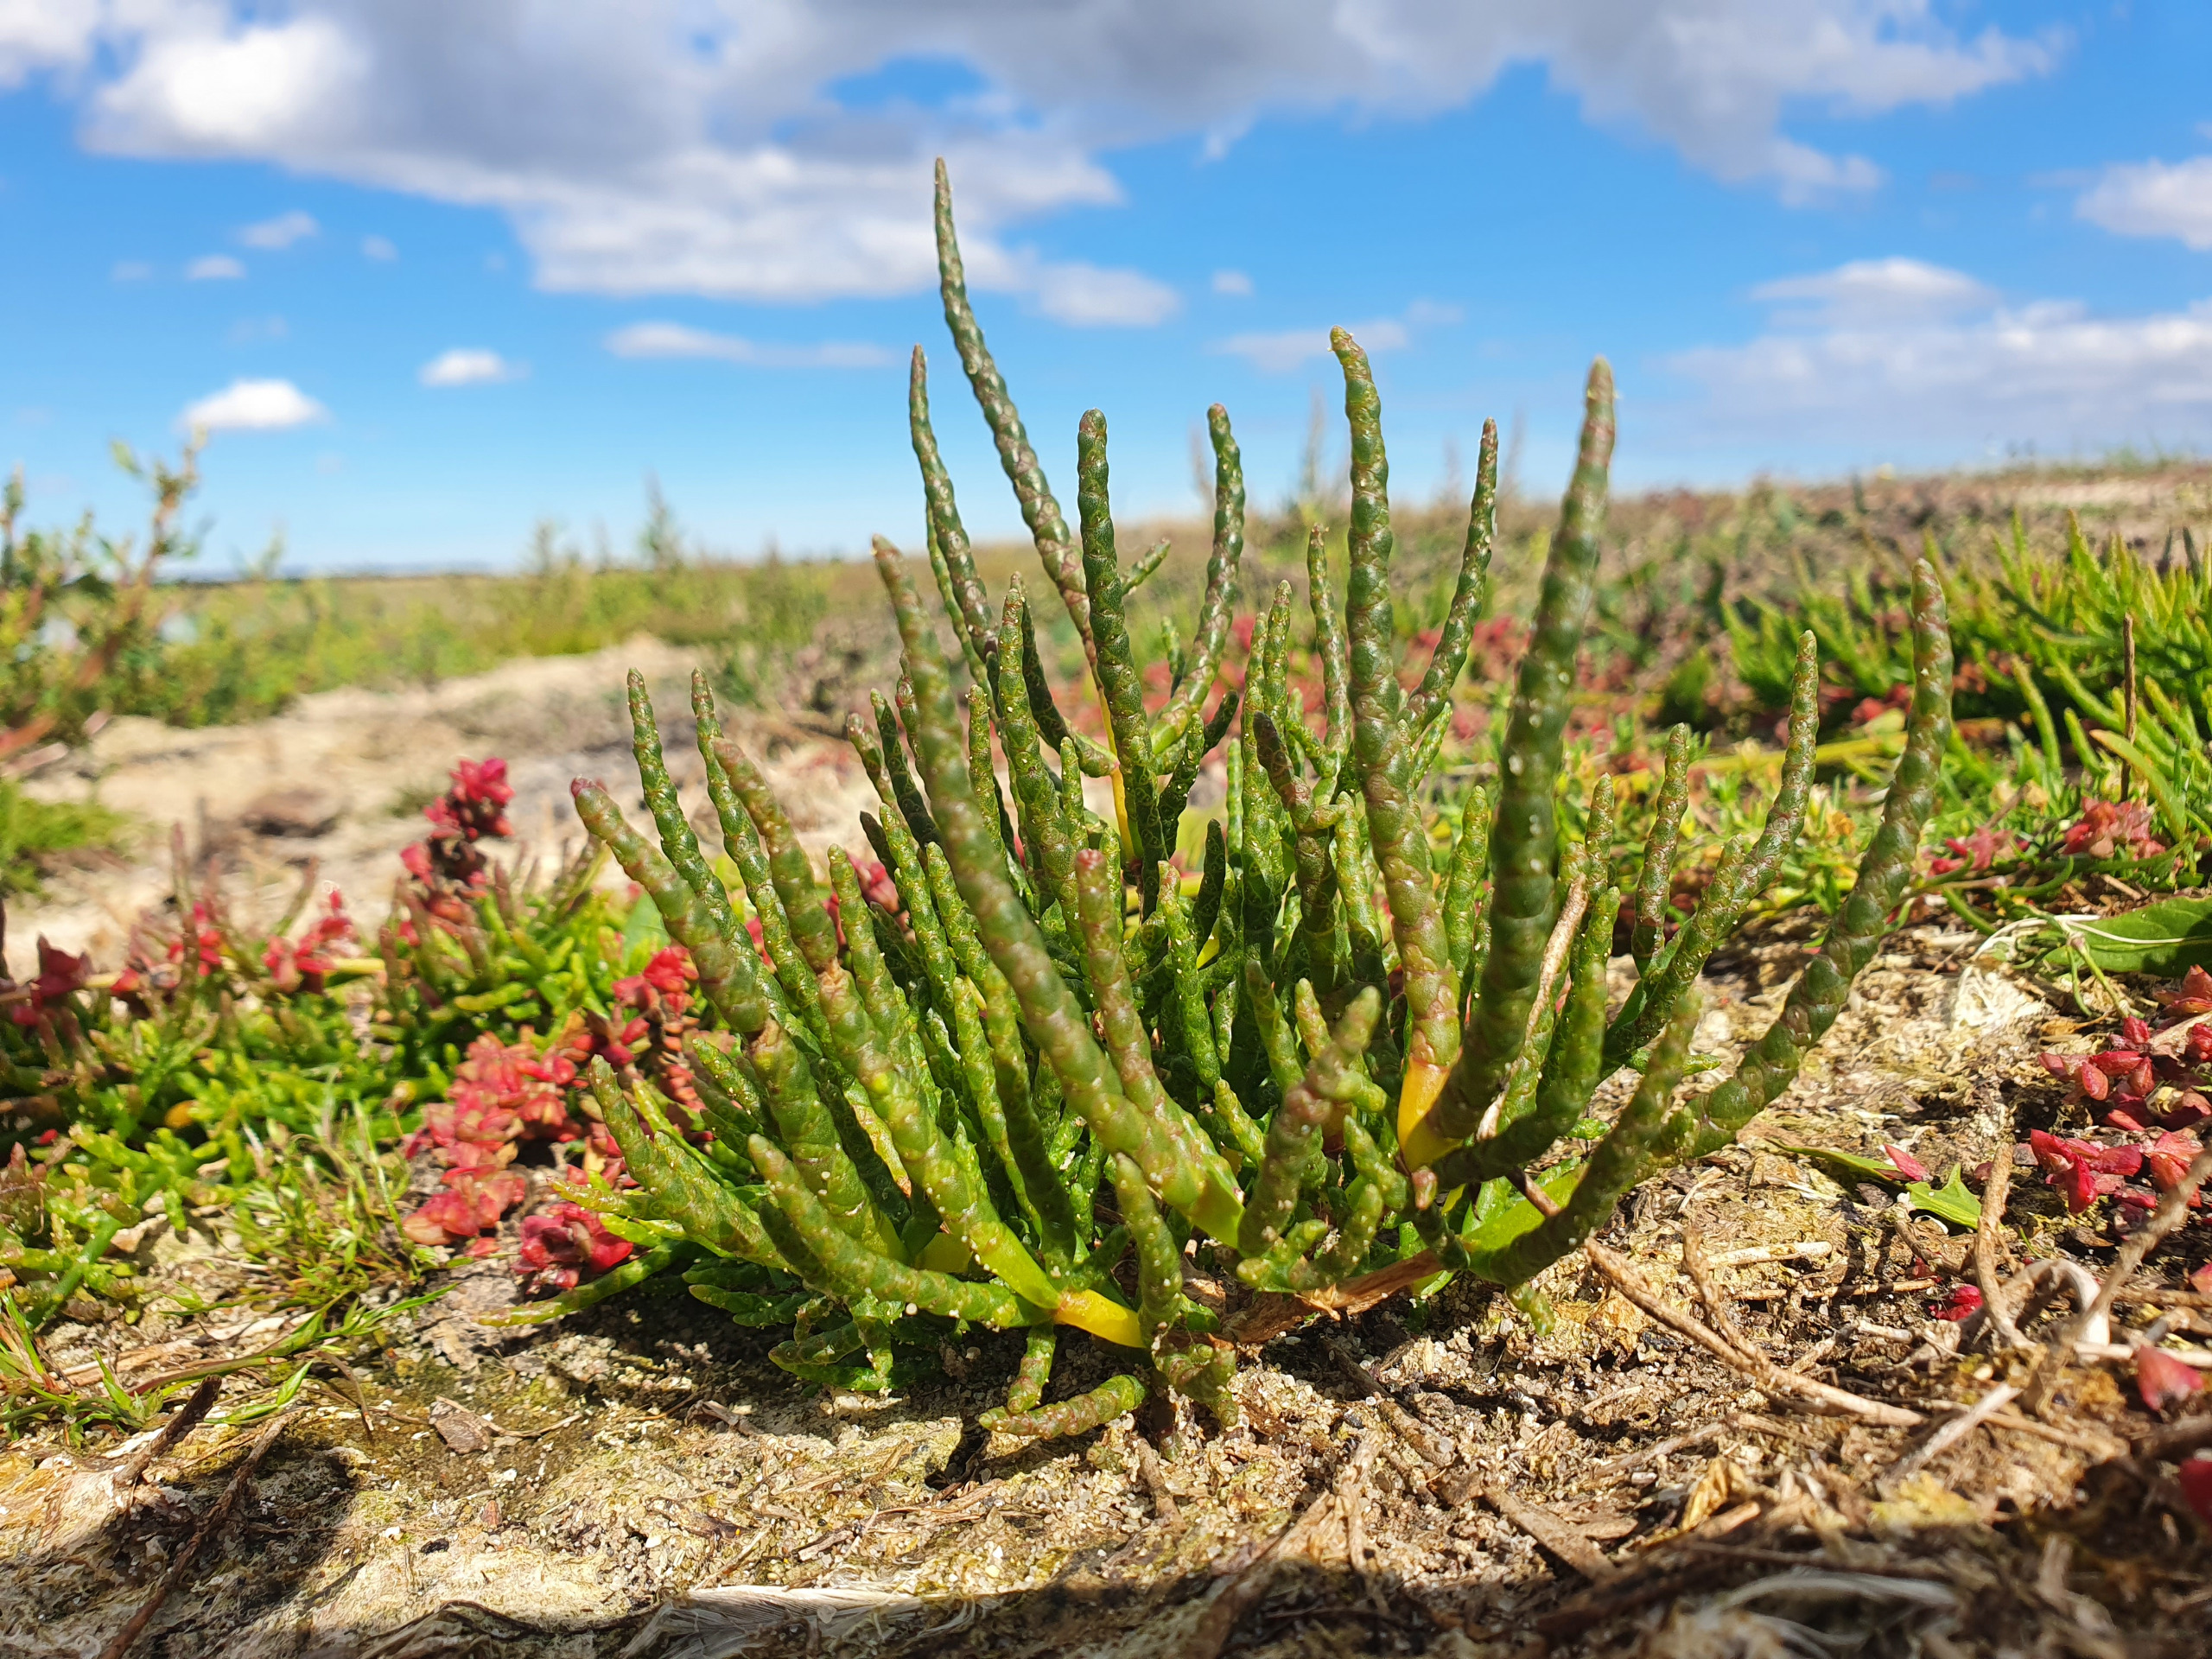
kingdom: Plantae
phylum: Tracheophyta
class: Magnoliopsida
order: Caryophyllales
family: Amaranthaceae
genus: Salicornia
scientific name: Salicornia europaea
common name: Almindelig salturt
